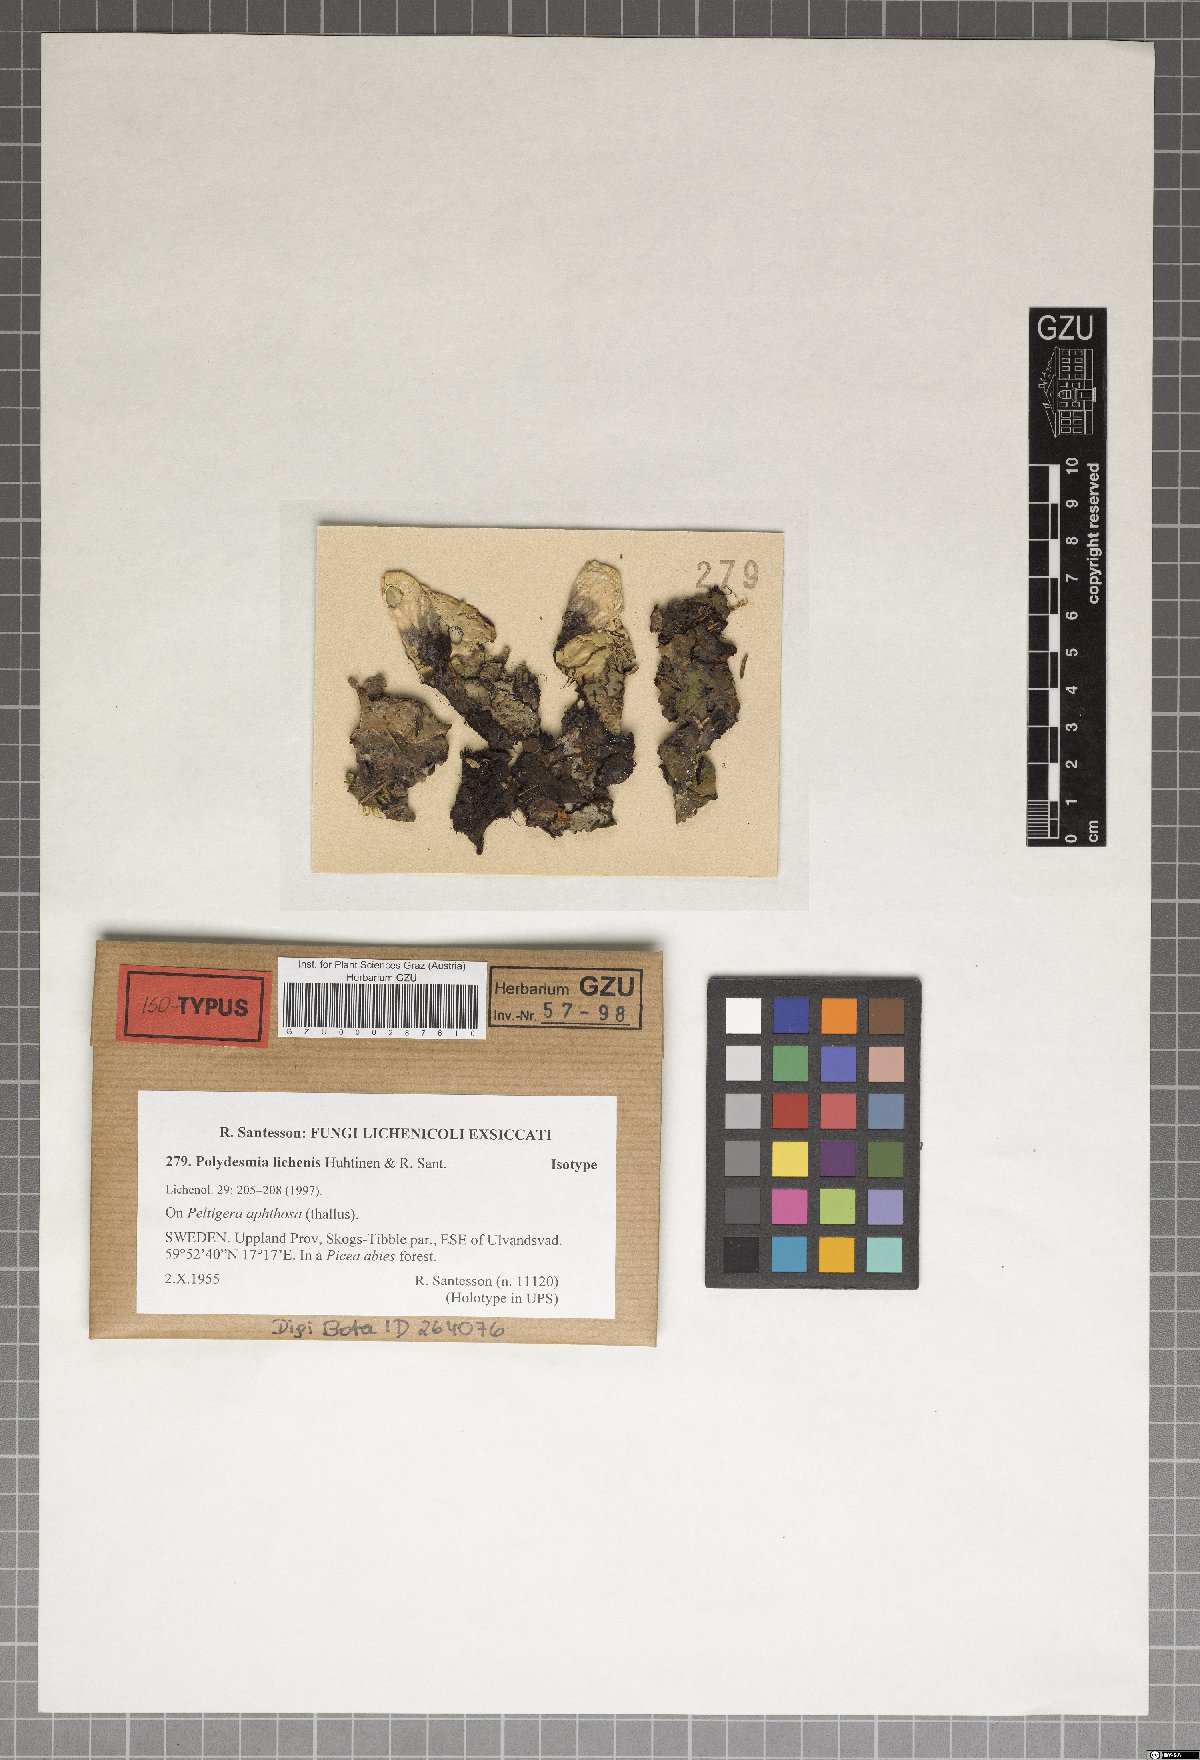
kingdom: Fungi
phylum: Ascomycota
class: Leotiomycetes
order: Helotiales
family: Hyaloscyphaceae
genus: Polydesmia
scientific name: Polydesmia lichenis
